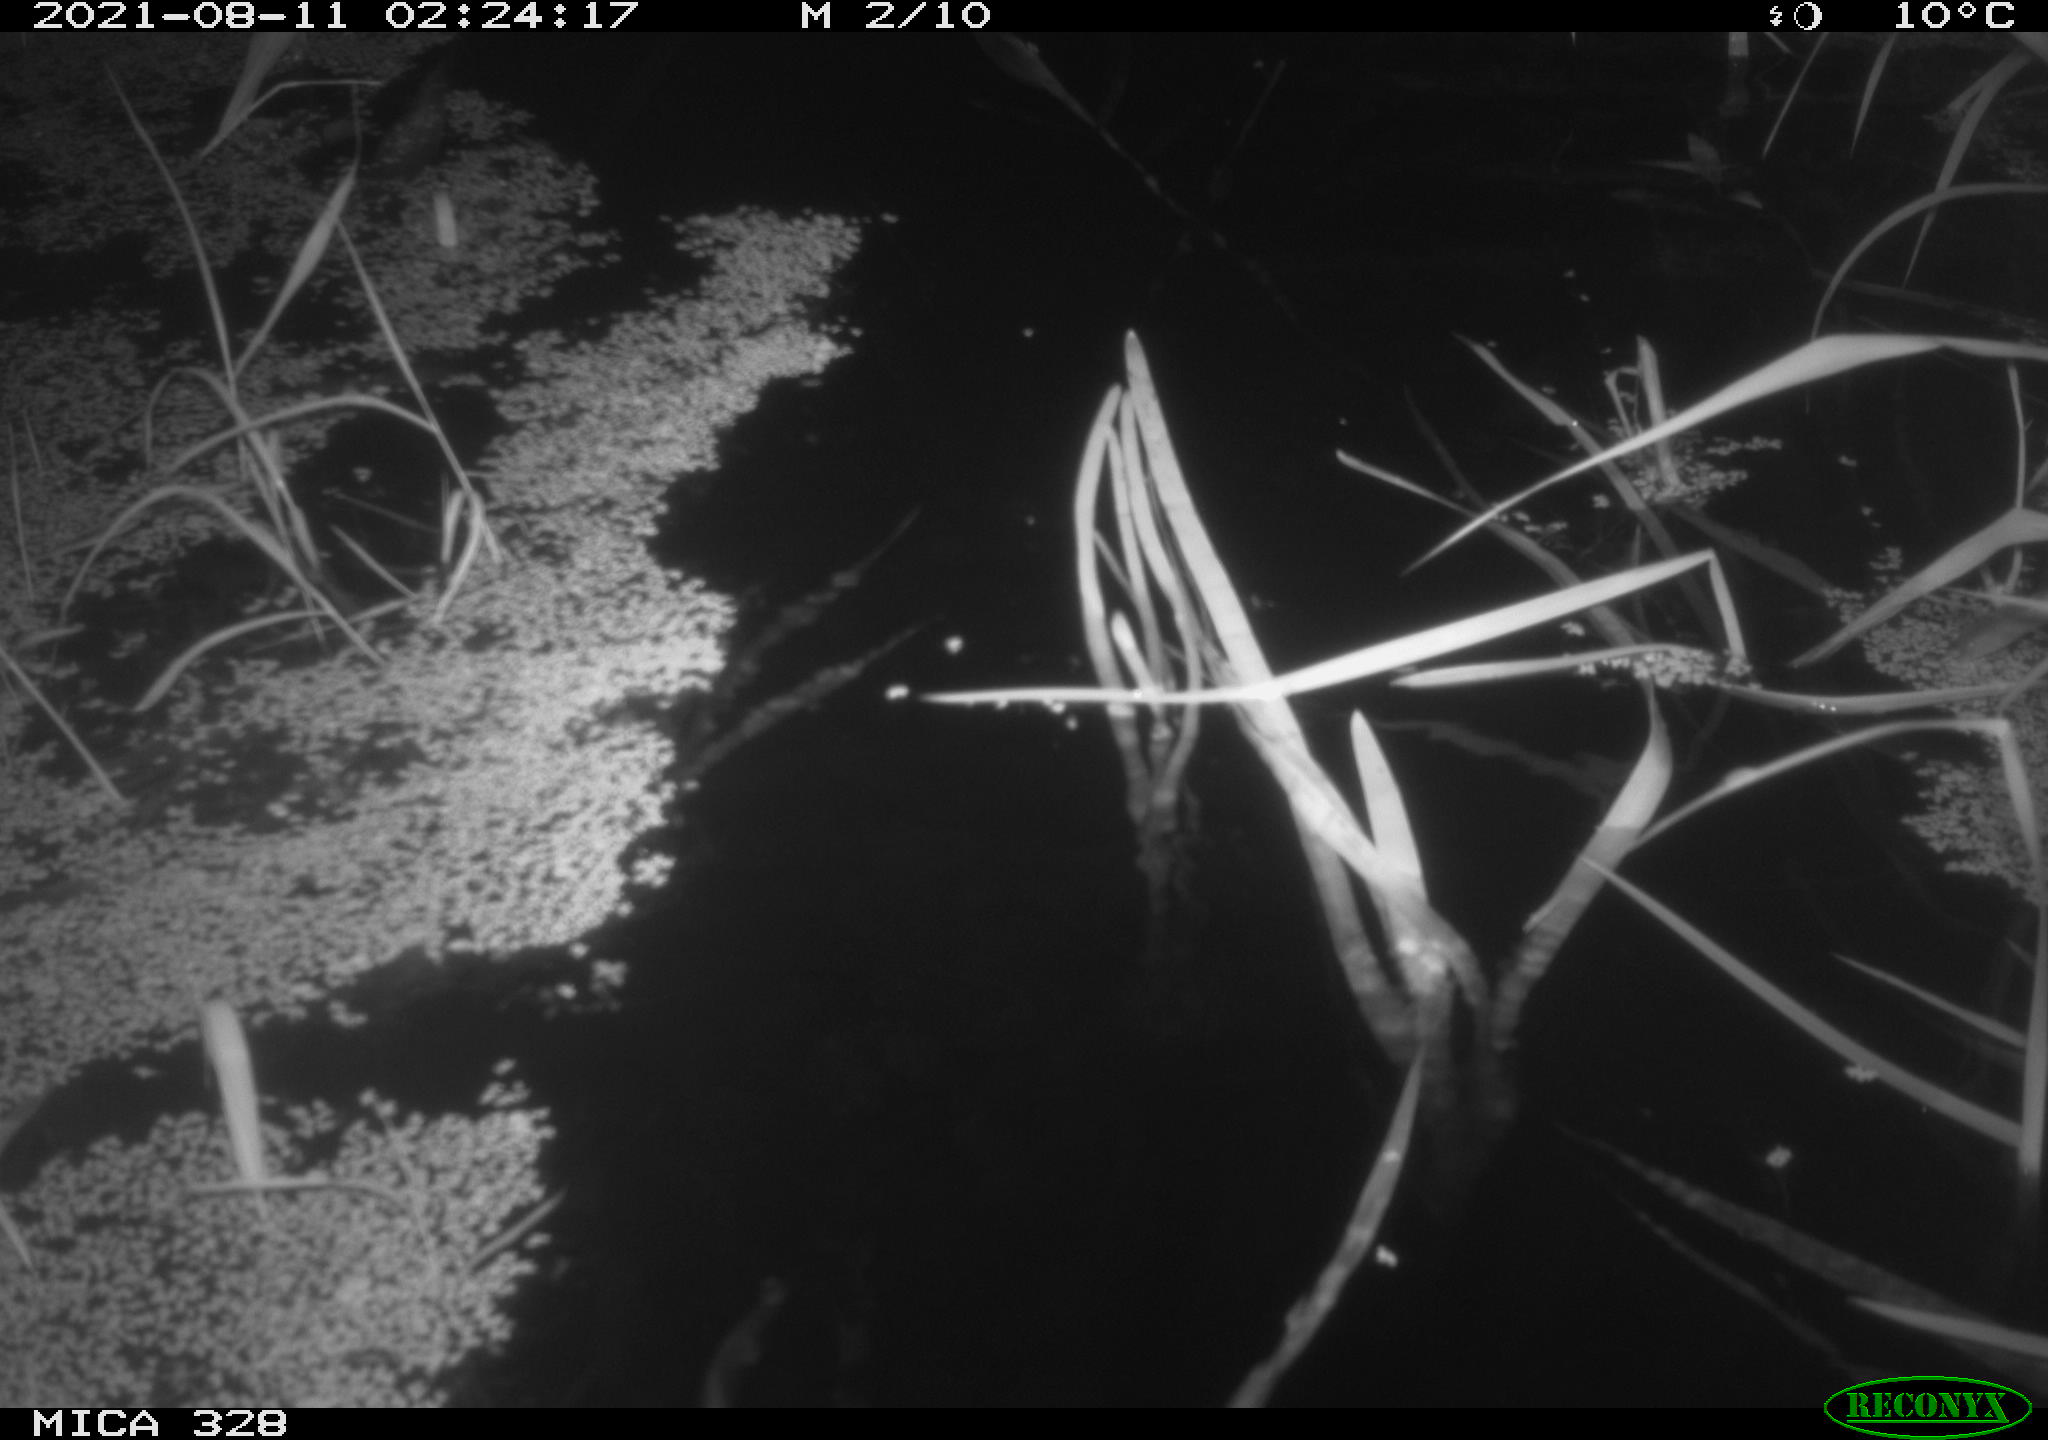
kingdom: Animalia
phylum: Chordata
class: Mammalia
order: Rodentia
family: Cricetidae
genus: Ondatra
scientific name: Ondatra zibethicus
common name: Muskrat
